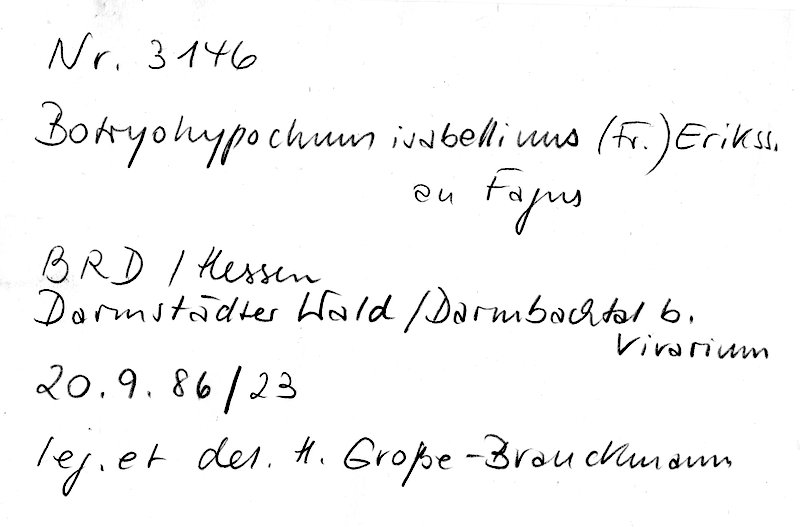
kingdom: Fungi
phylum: Basidiomycota
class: Agaricomycetes
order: Cantharellales
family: Botryobasidiaceae
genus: Botryobasidium
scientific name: Botryobasidium isabellinum
